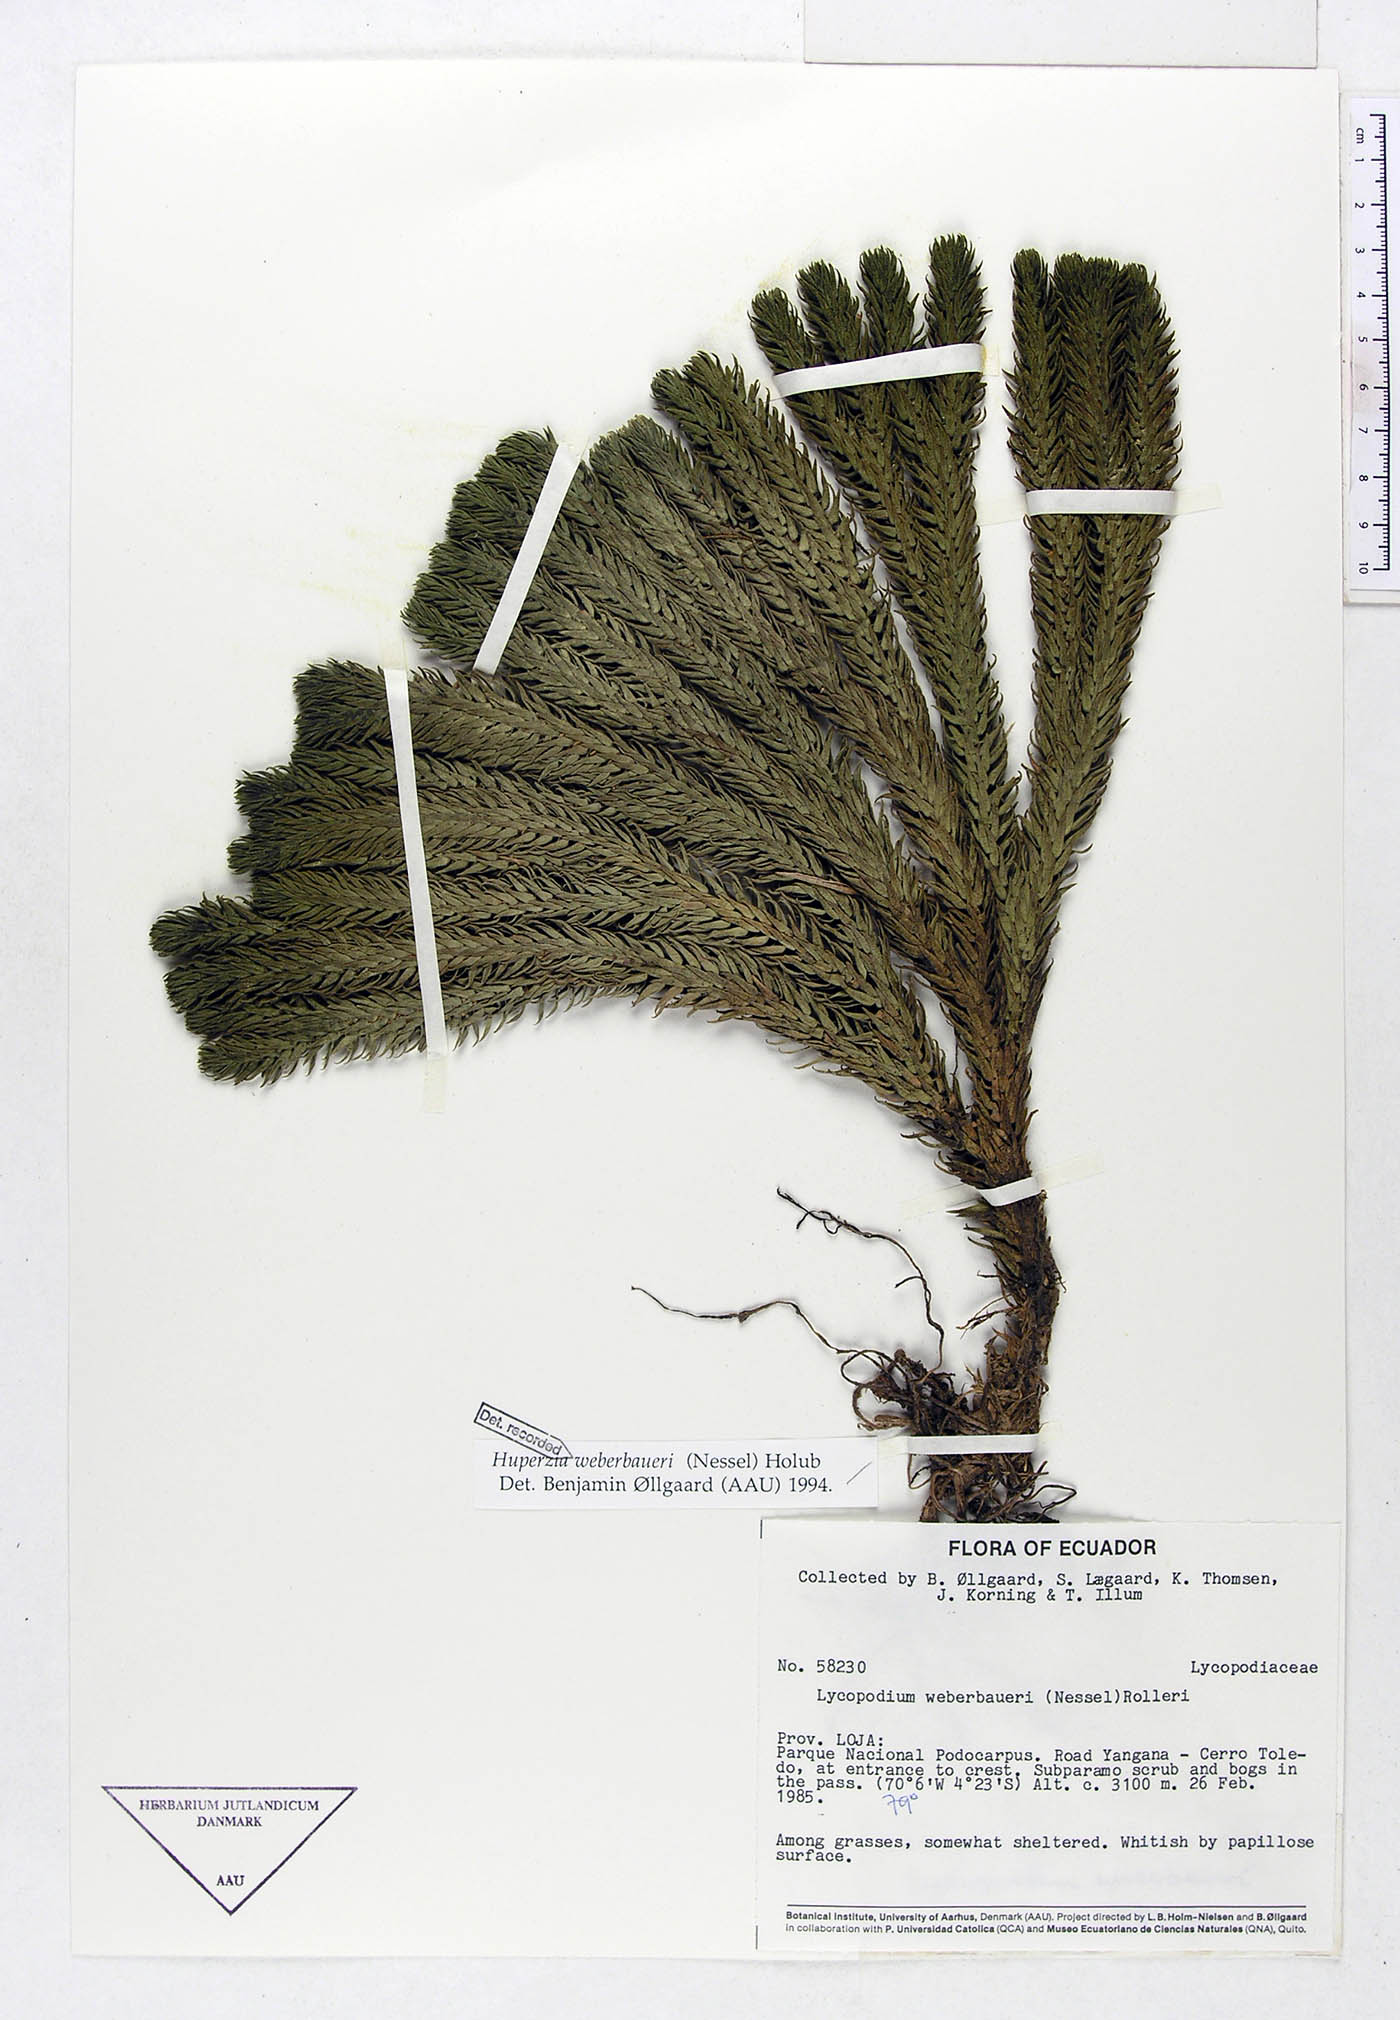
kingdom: Plantae
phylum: Tracheophyta
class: Lycopodiopsida
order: Lycopodiales
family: Lycopodiaceae
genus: Phlegmariurus
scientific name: Phlegmariurus weberbaueri
